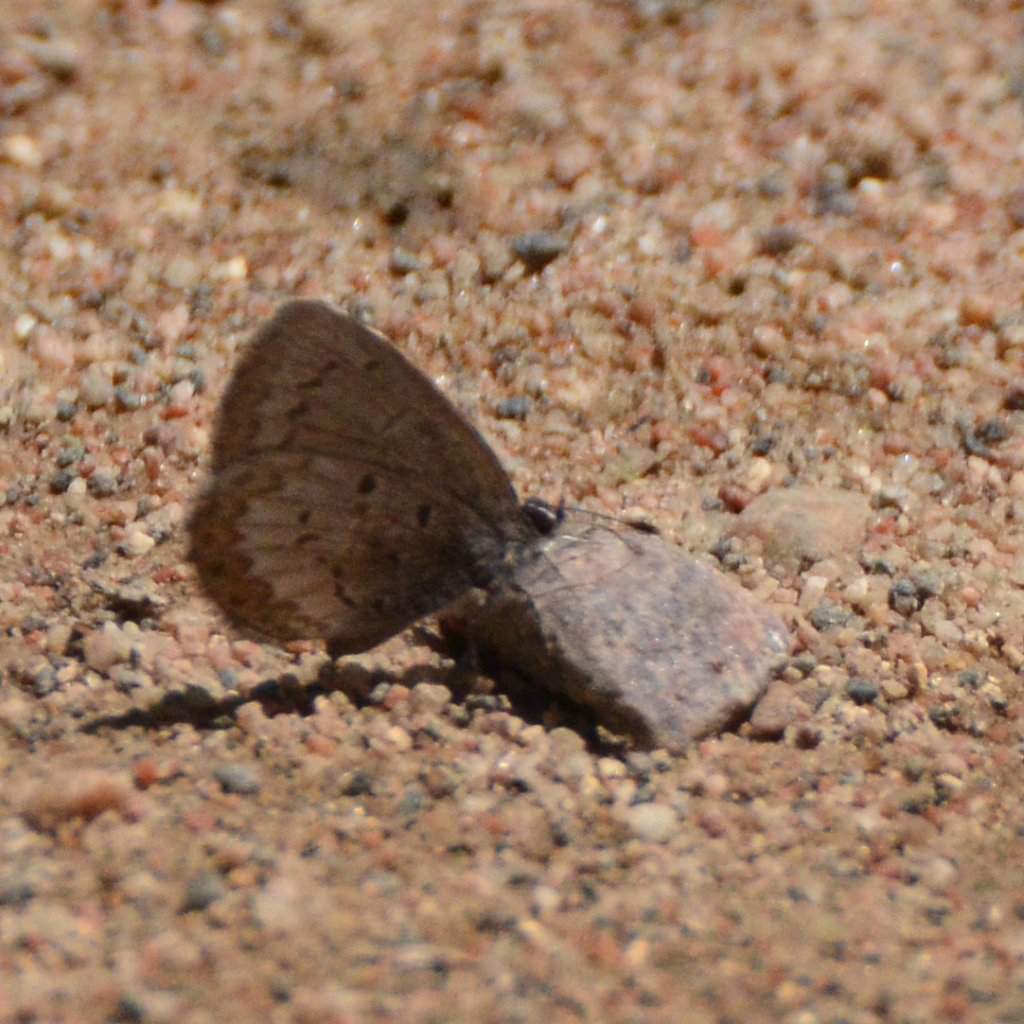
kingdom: Animalia
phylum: Arthropoda
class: Insecta
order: Lepidoptera
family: Lycaenidae
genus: Celastrina
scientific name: Celastrina lucia
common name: Northern Spring Azure
